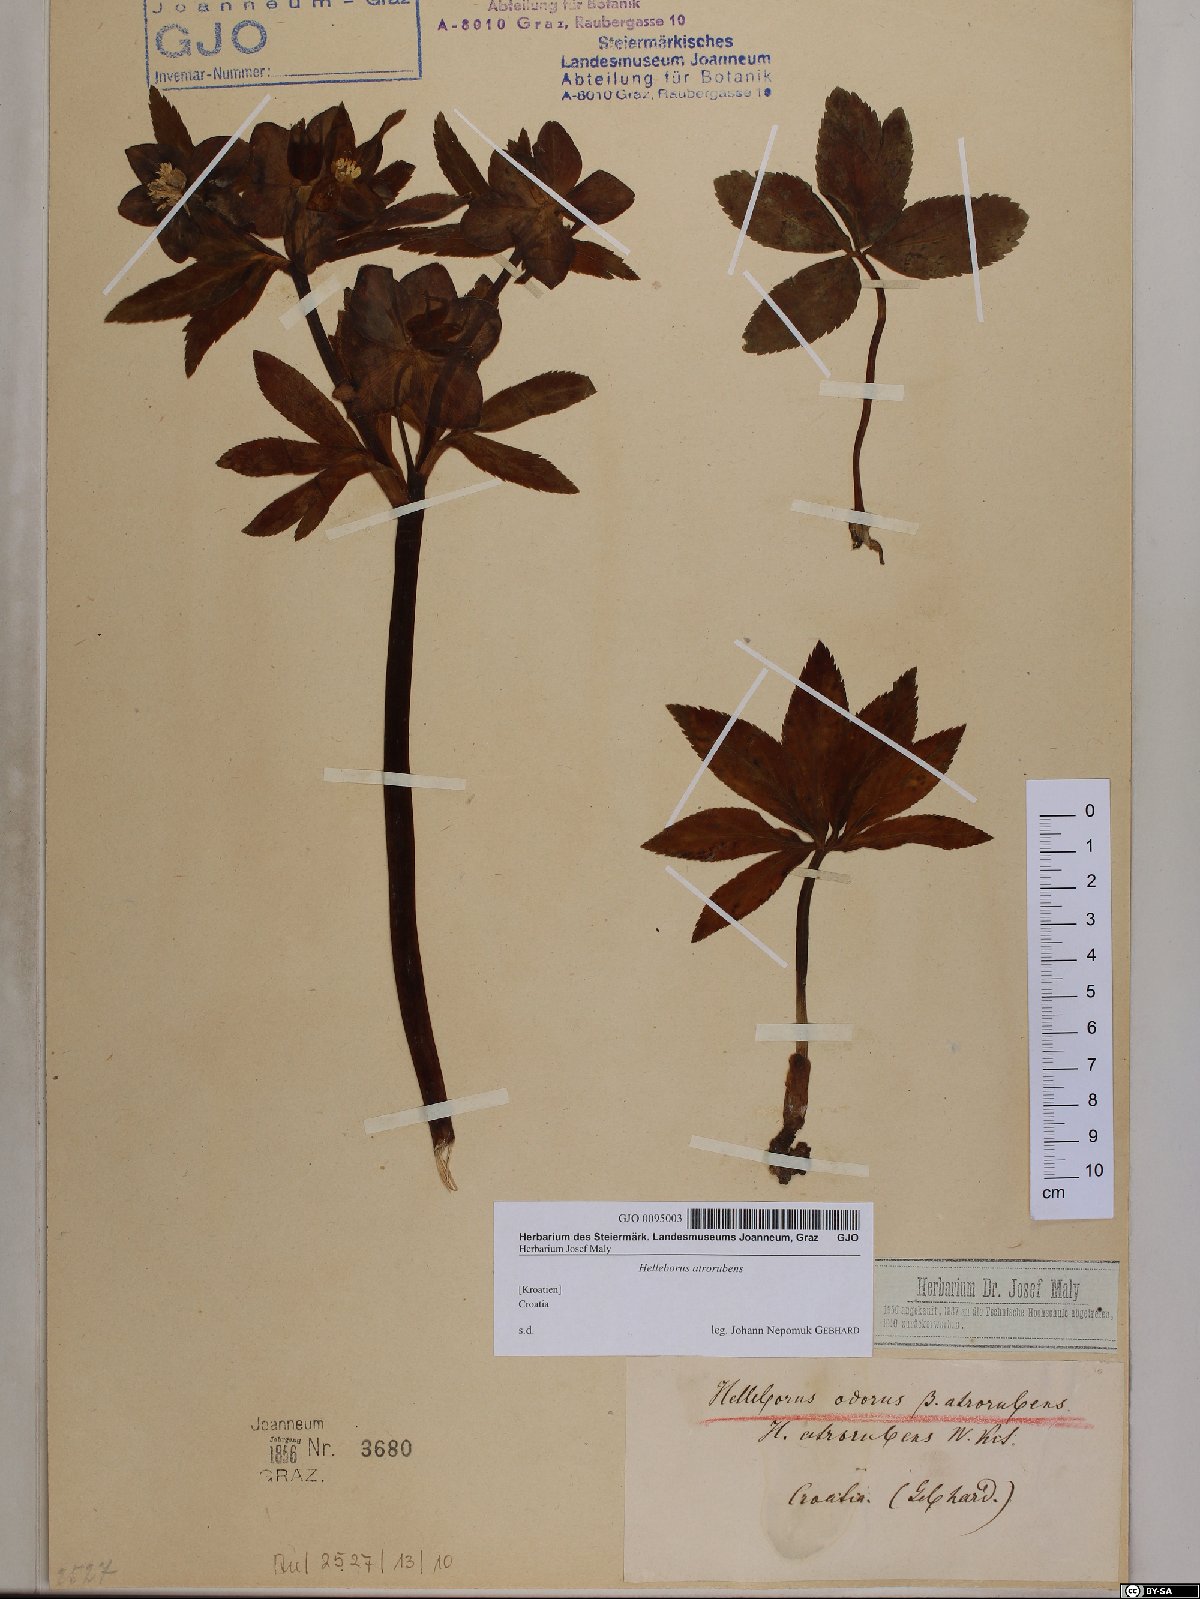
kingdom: Plantae
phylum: Tracheophyta
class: Magnoliopsida
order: Ranunculales
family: Ranunculaceae
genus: Helleborus
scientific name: Helleborus dumetorum
